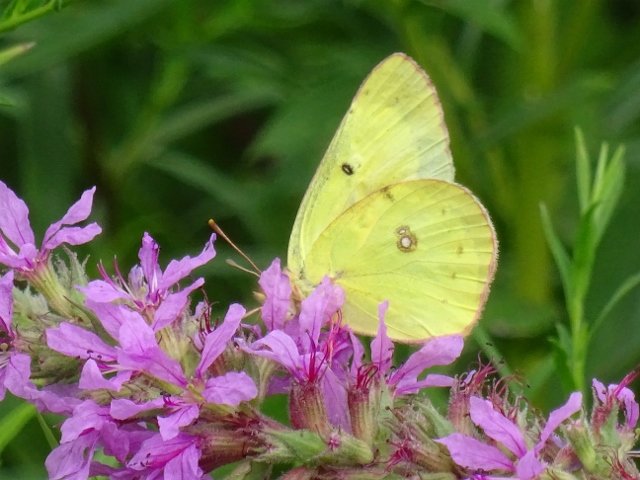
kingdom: Animalia
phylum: Arthropoda
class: Insecta
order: Lepidoptera
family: Pieridae
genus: Colias
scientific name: Colias philodice
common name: Clouded Sulphur
